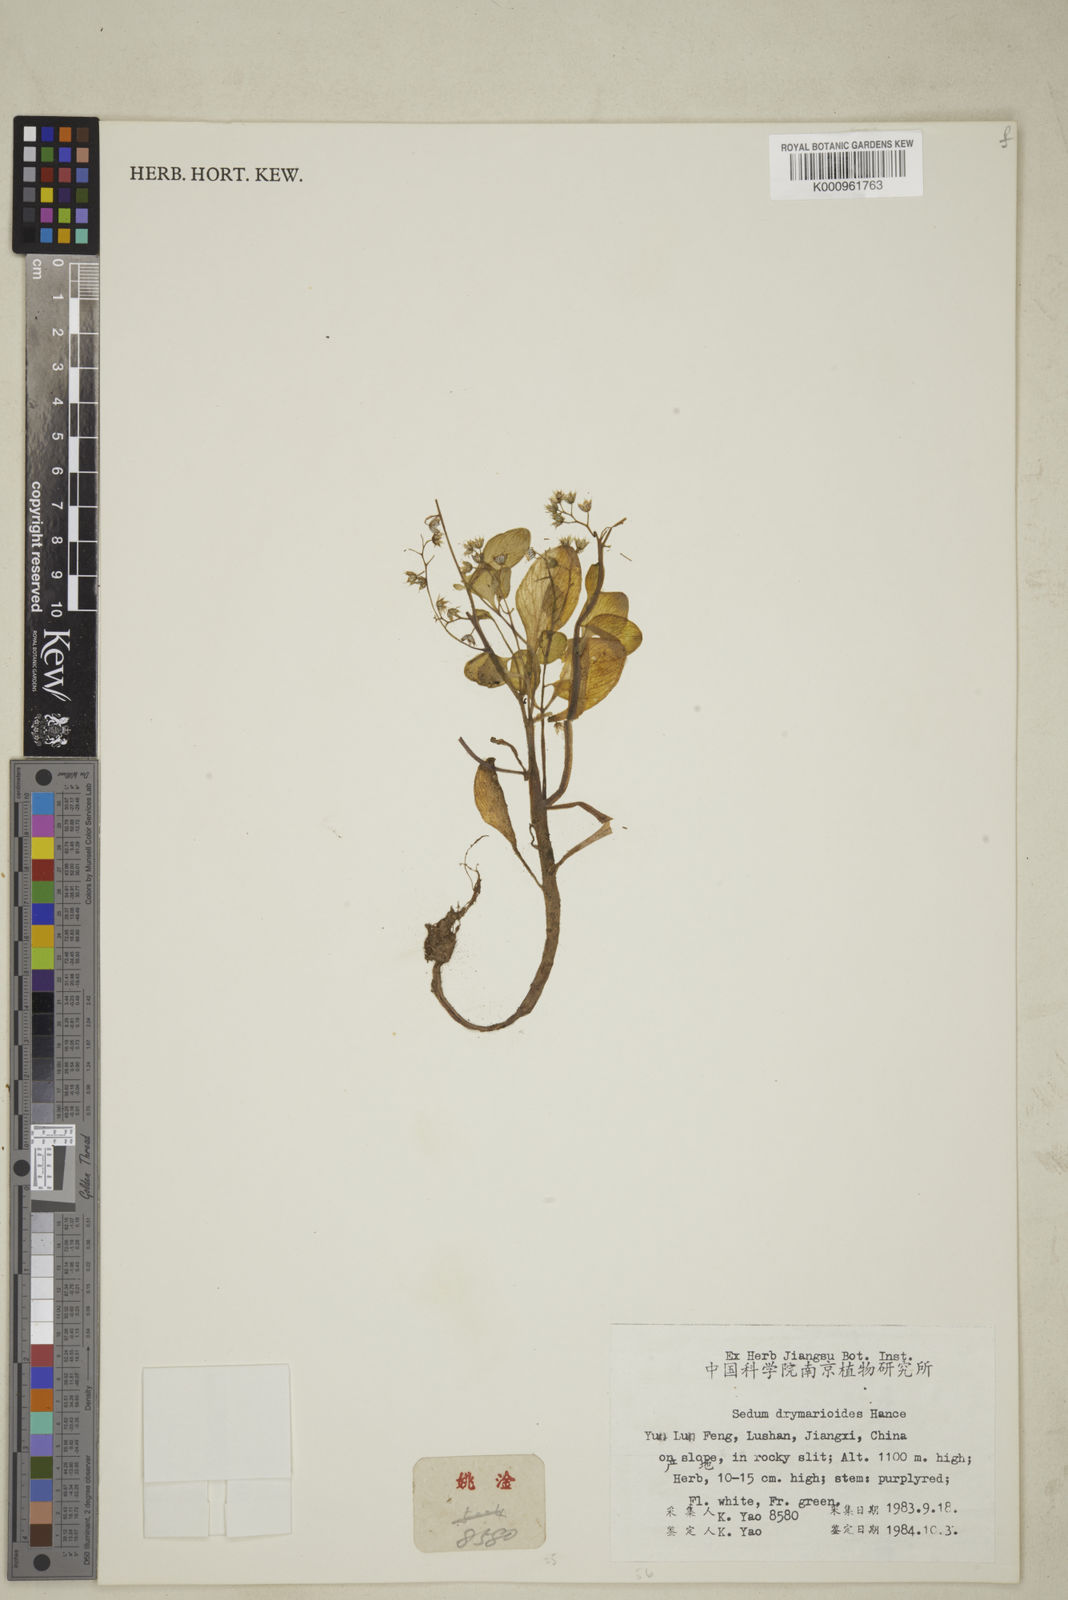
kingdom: Plantae
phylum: Tracheophyta
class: Magnoliopsida
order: Saxifragales
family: Crassulaceae
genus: Sedum
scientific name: Sedum drymarioides
